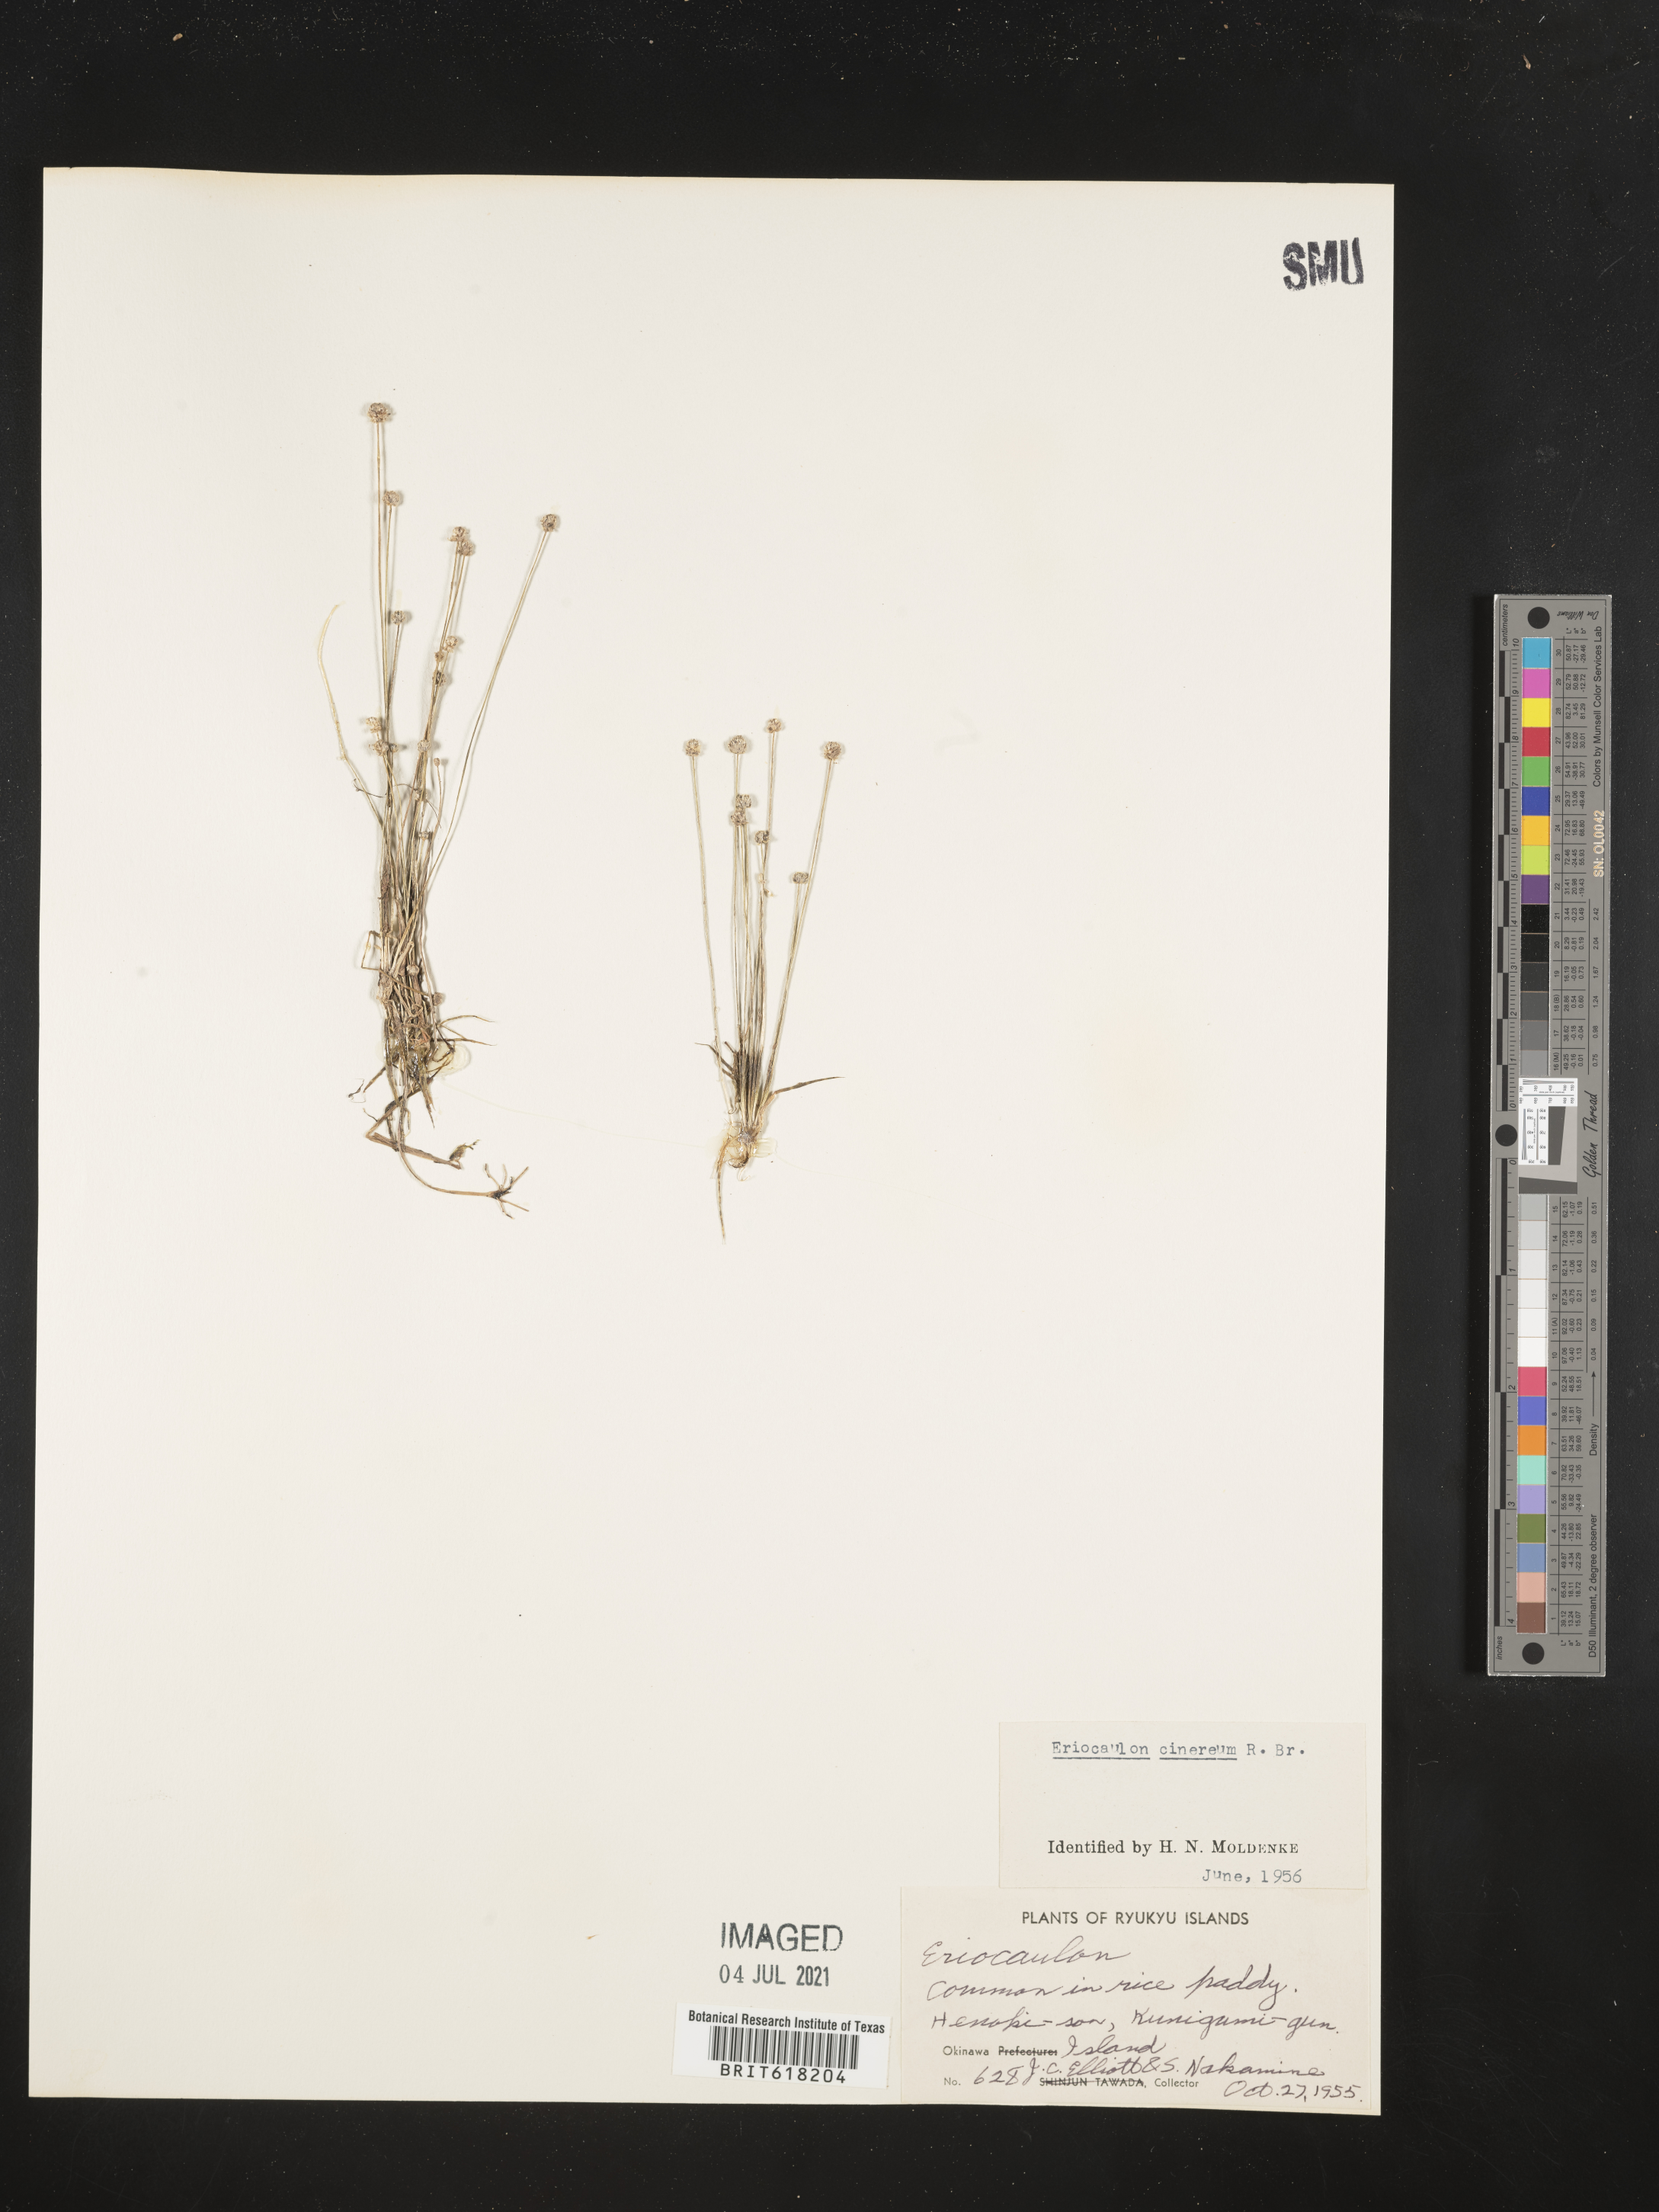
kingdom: Plantae
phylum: Tracheophyta
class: Liliopsida
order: Poales
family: Eriocaulaceae
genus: Eriocaulon
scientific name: Eriocaulon cinereum
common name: Ashy pipewort
